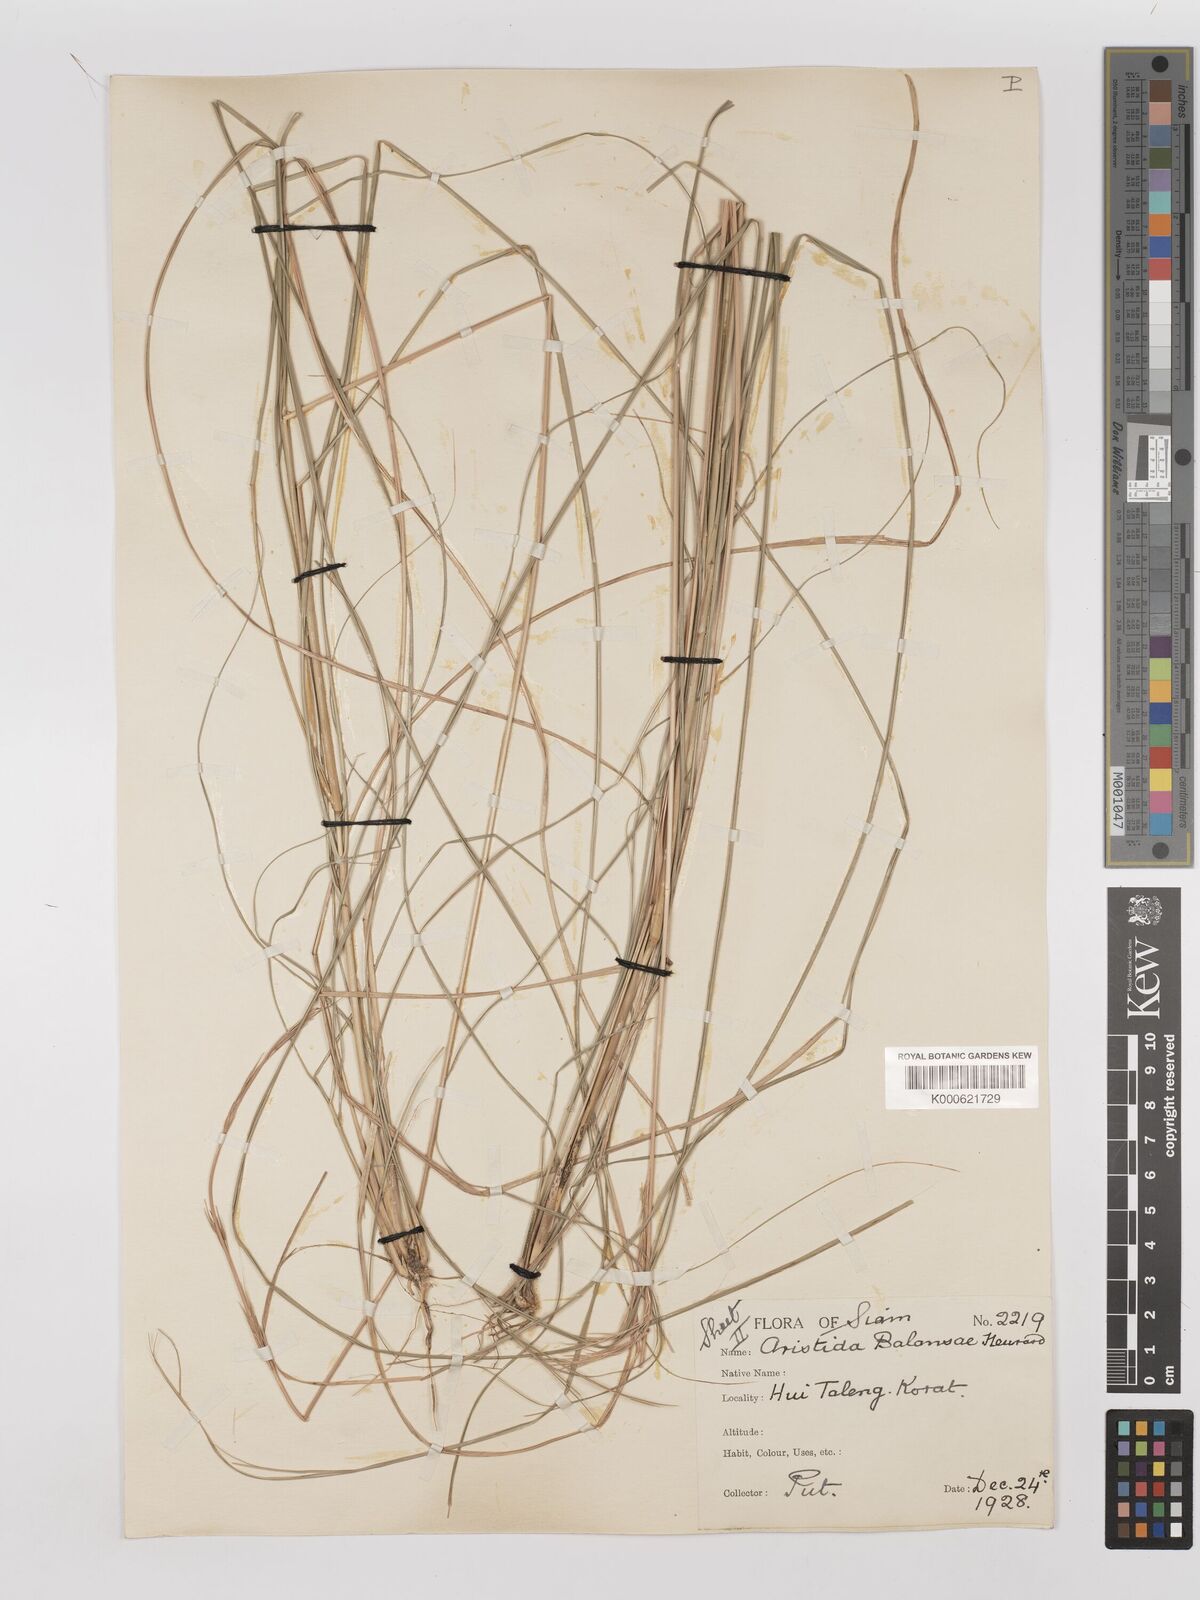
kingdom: Plantae
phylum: Tracheophyta
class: Liliopsida
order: Poales
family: Poaceae
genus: Aristida
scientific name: Aristida balansae
